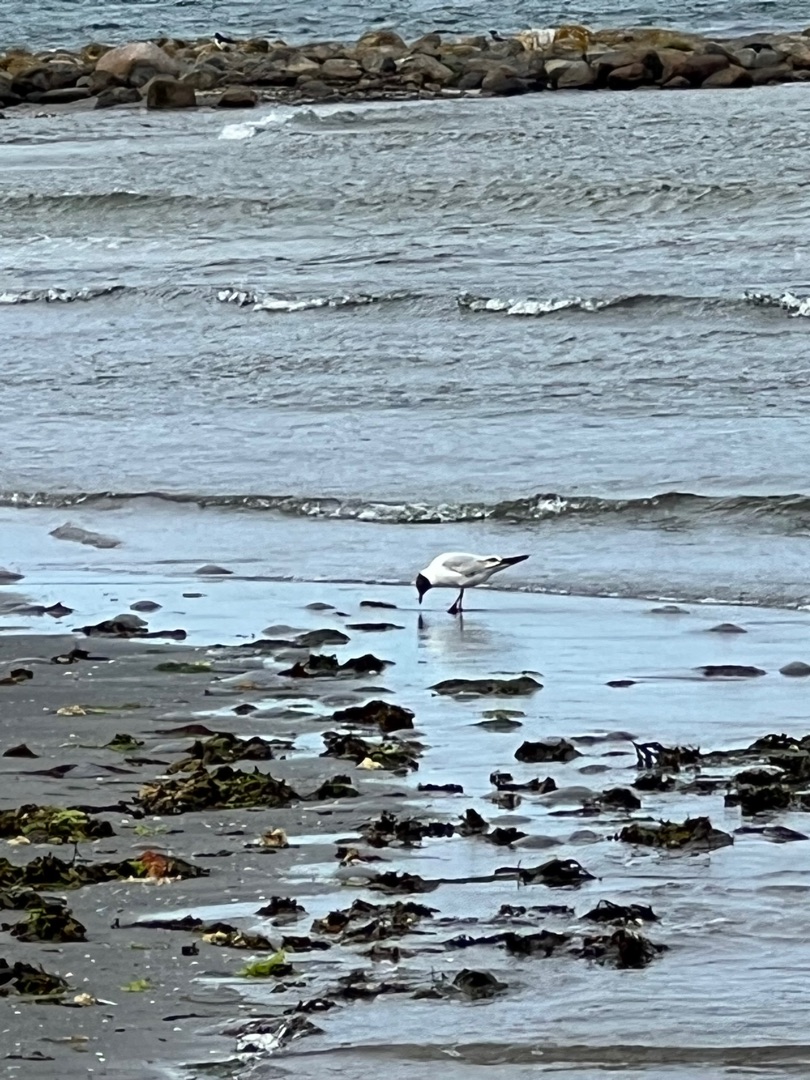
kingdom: Animalia
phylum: Chordata
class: Aves
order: Charadriiformes
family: Laridae
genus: Chroicocephalus
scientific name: Chroicocephalus ridibundus
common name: Hættemåge
